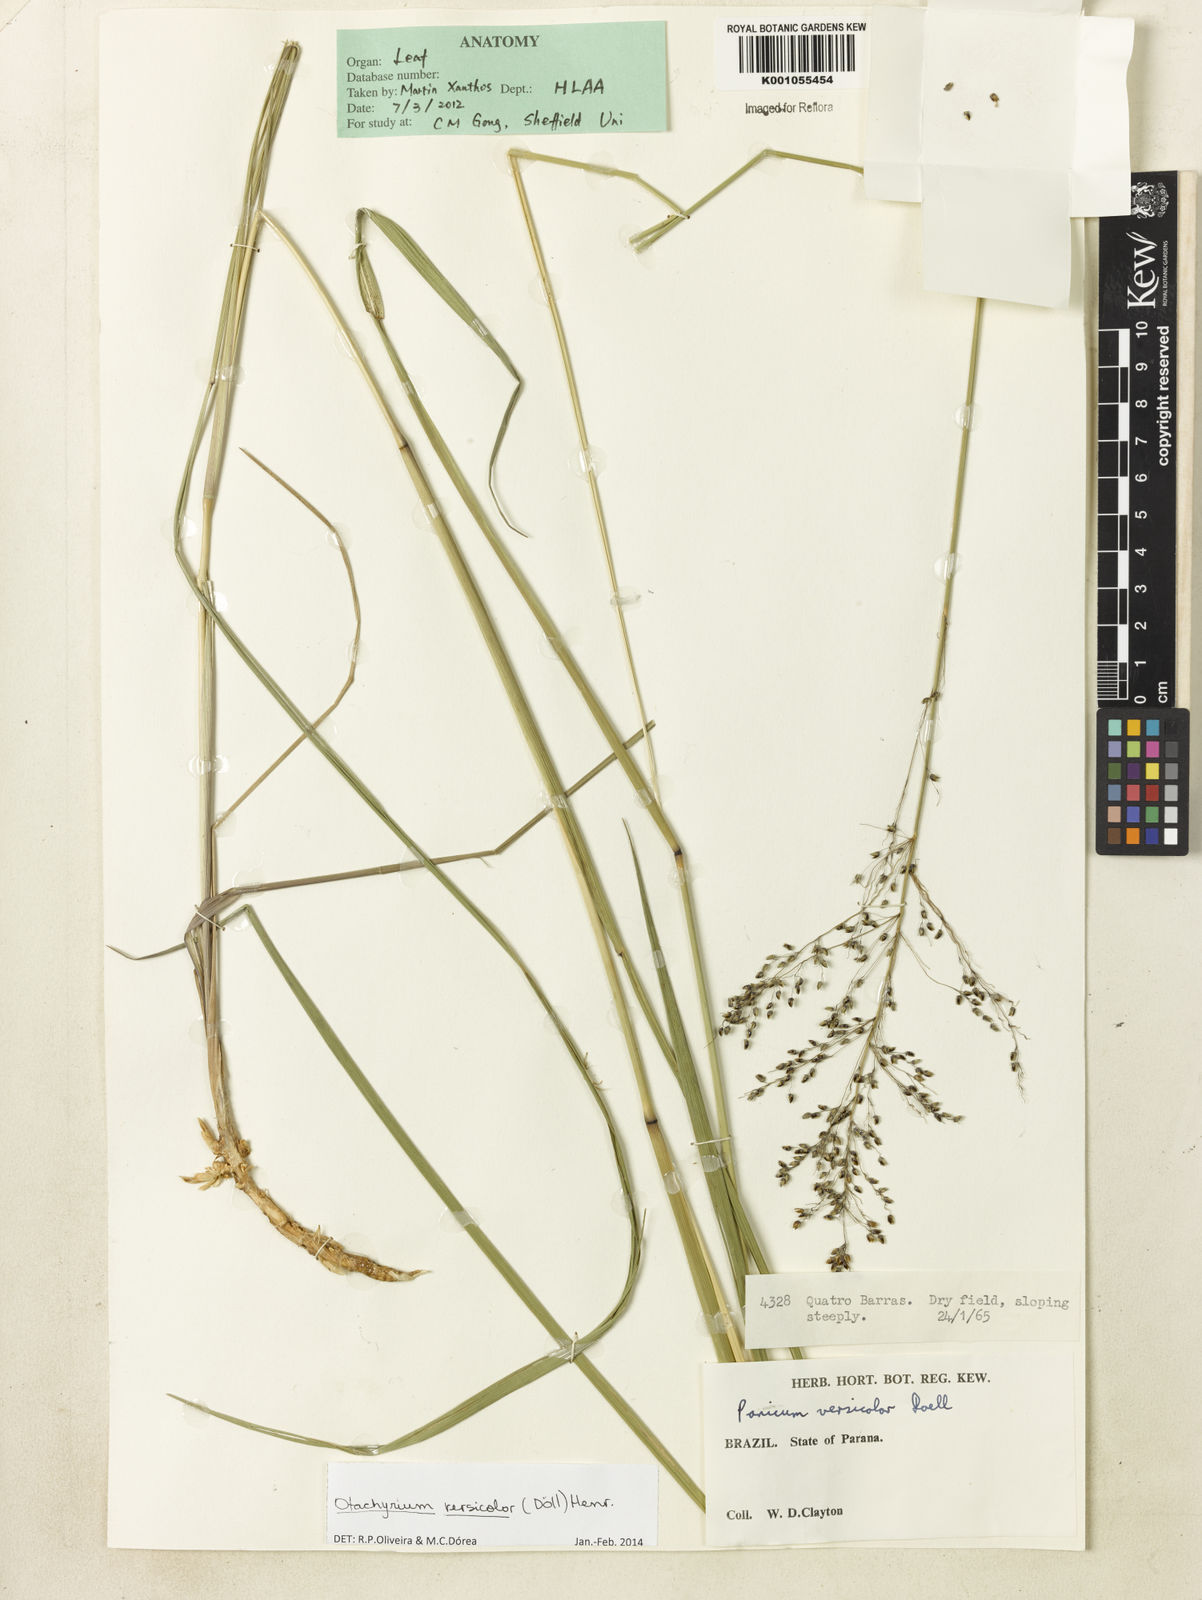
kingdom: Plantae
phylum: Tracheophyta
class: Liliopsida
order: Poales
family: Poaceae
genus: Otachyrium
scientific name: Otachyrium
